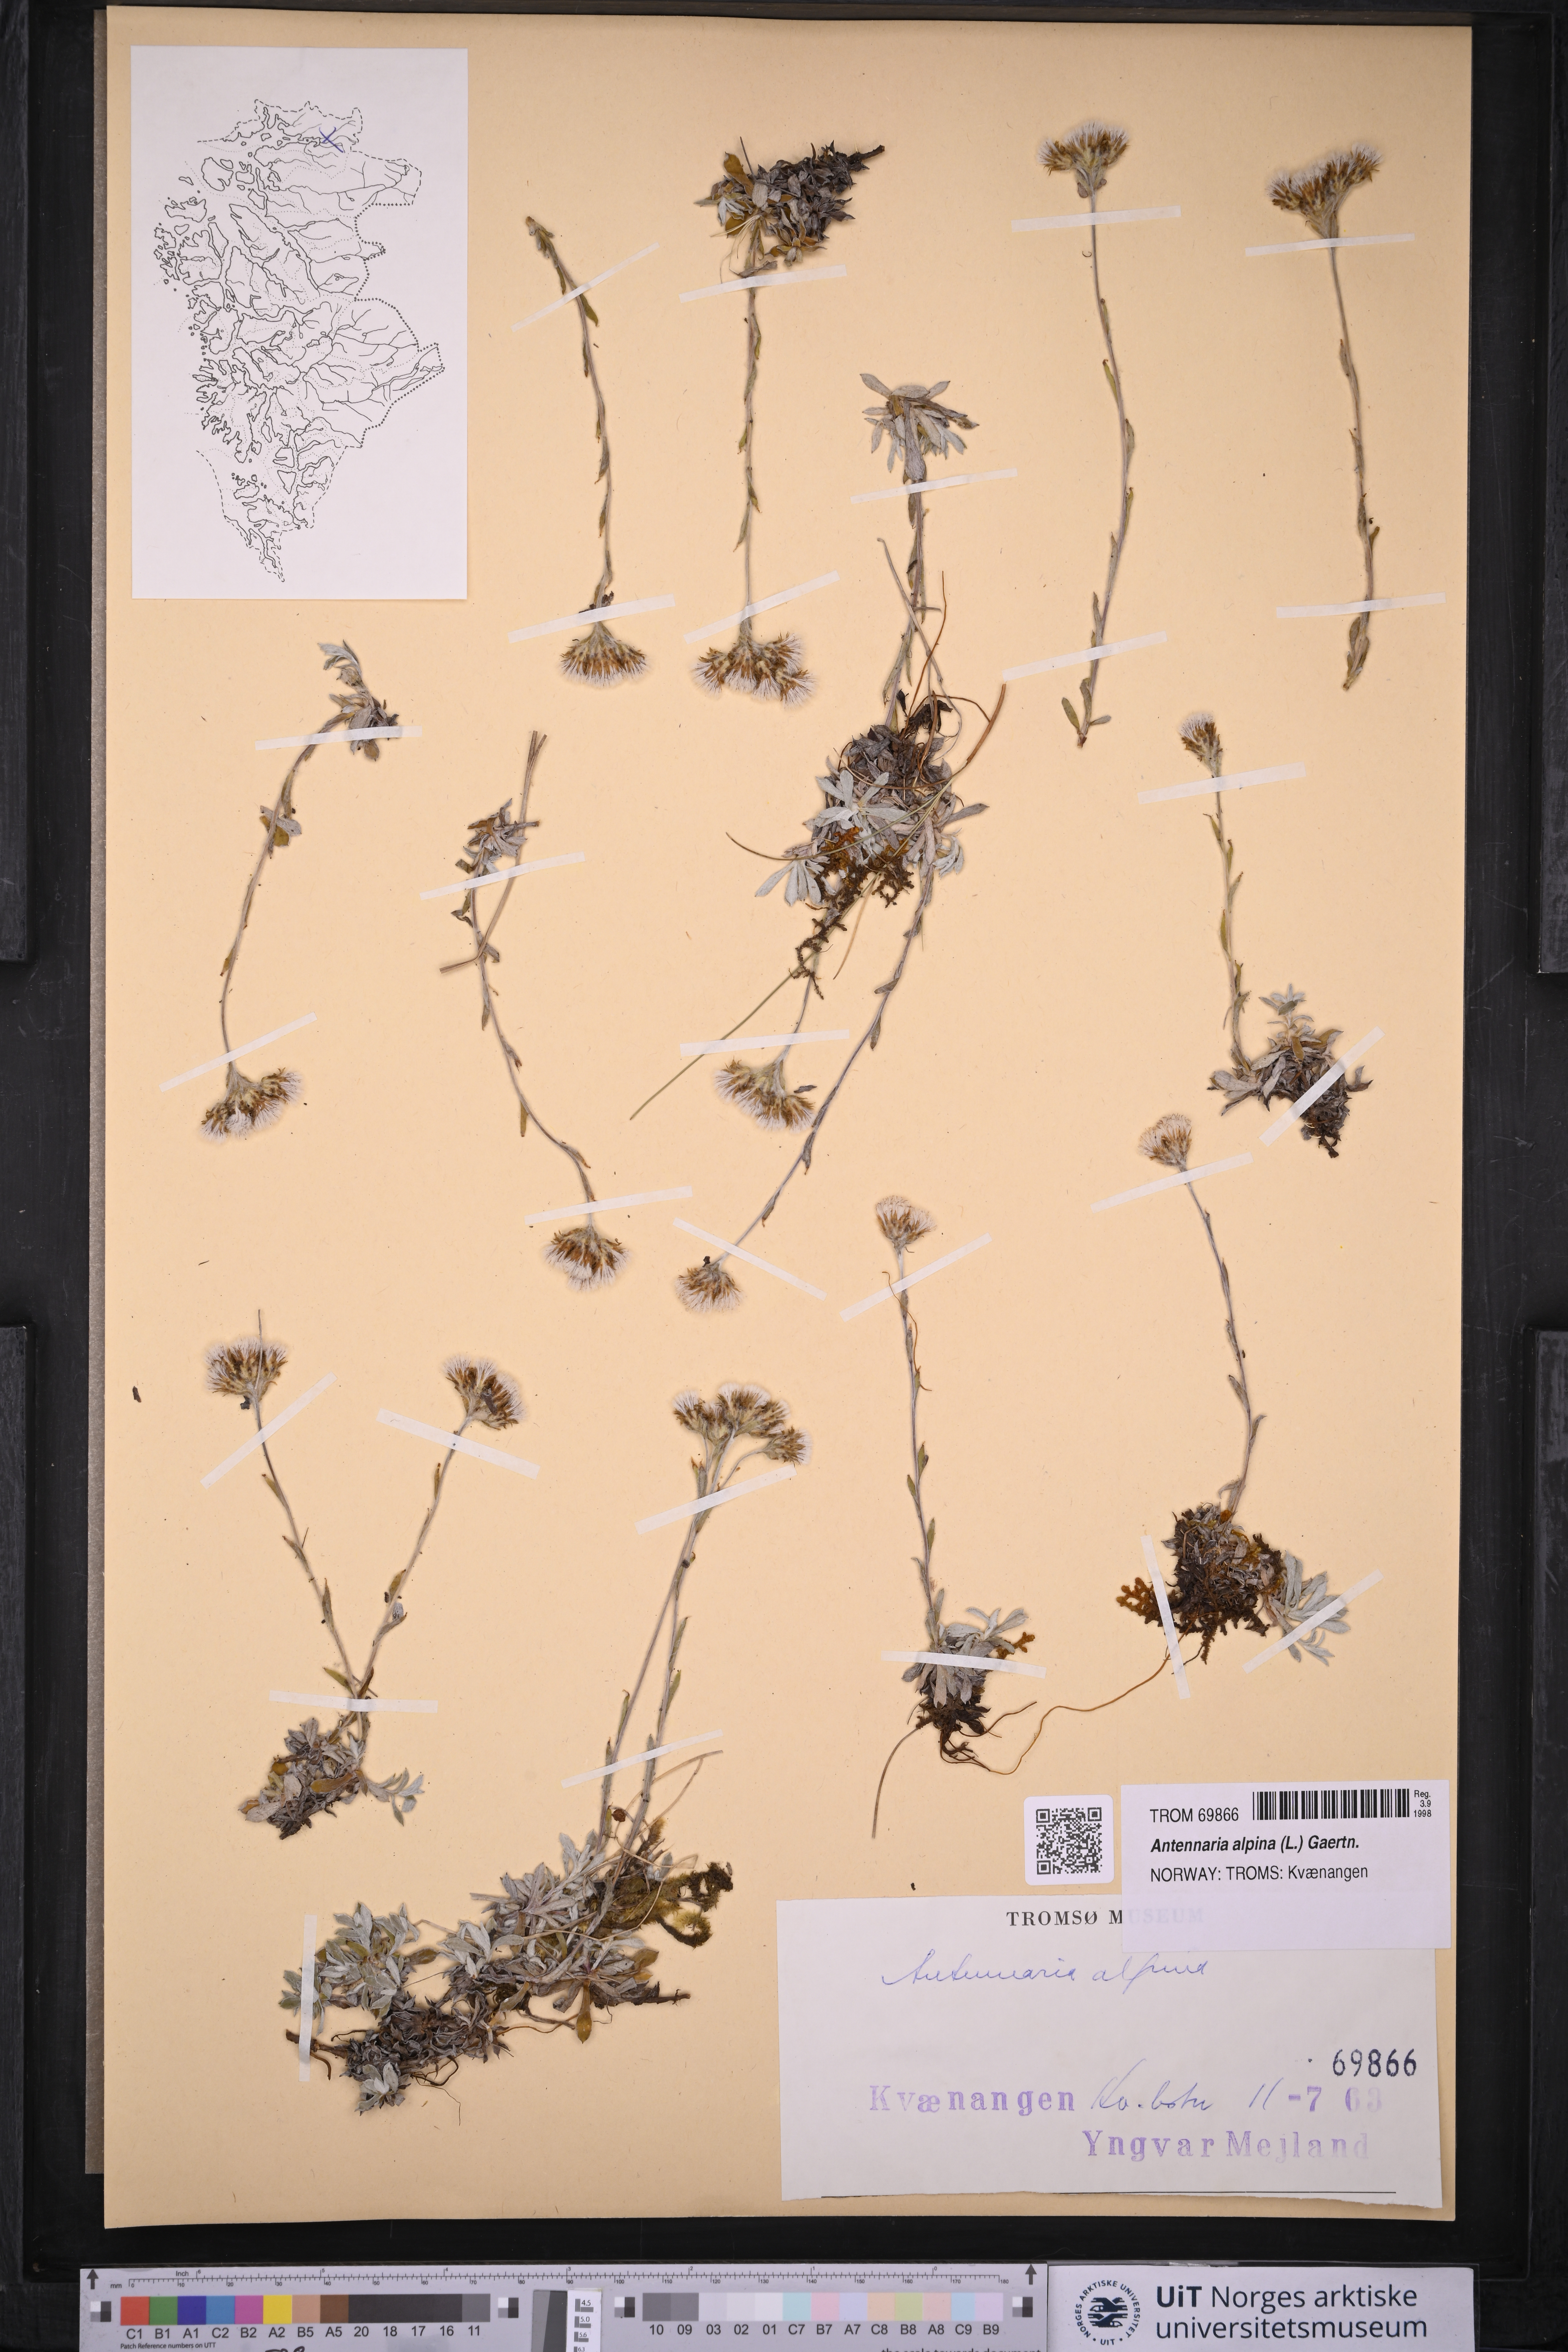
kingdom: Plantae
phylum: Tracheophyta
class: Magnoliopsida
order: Asterales
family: Asteraceae
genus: Antennaria
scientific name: Antennaria alpina
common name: Alpine pussytoes
